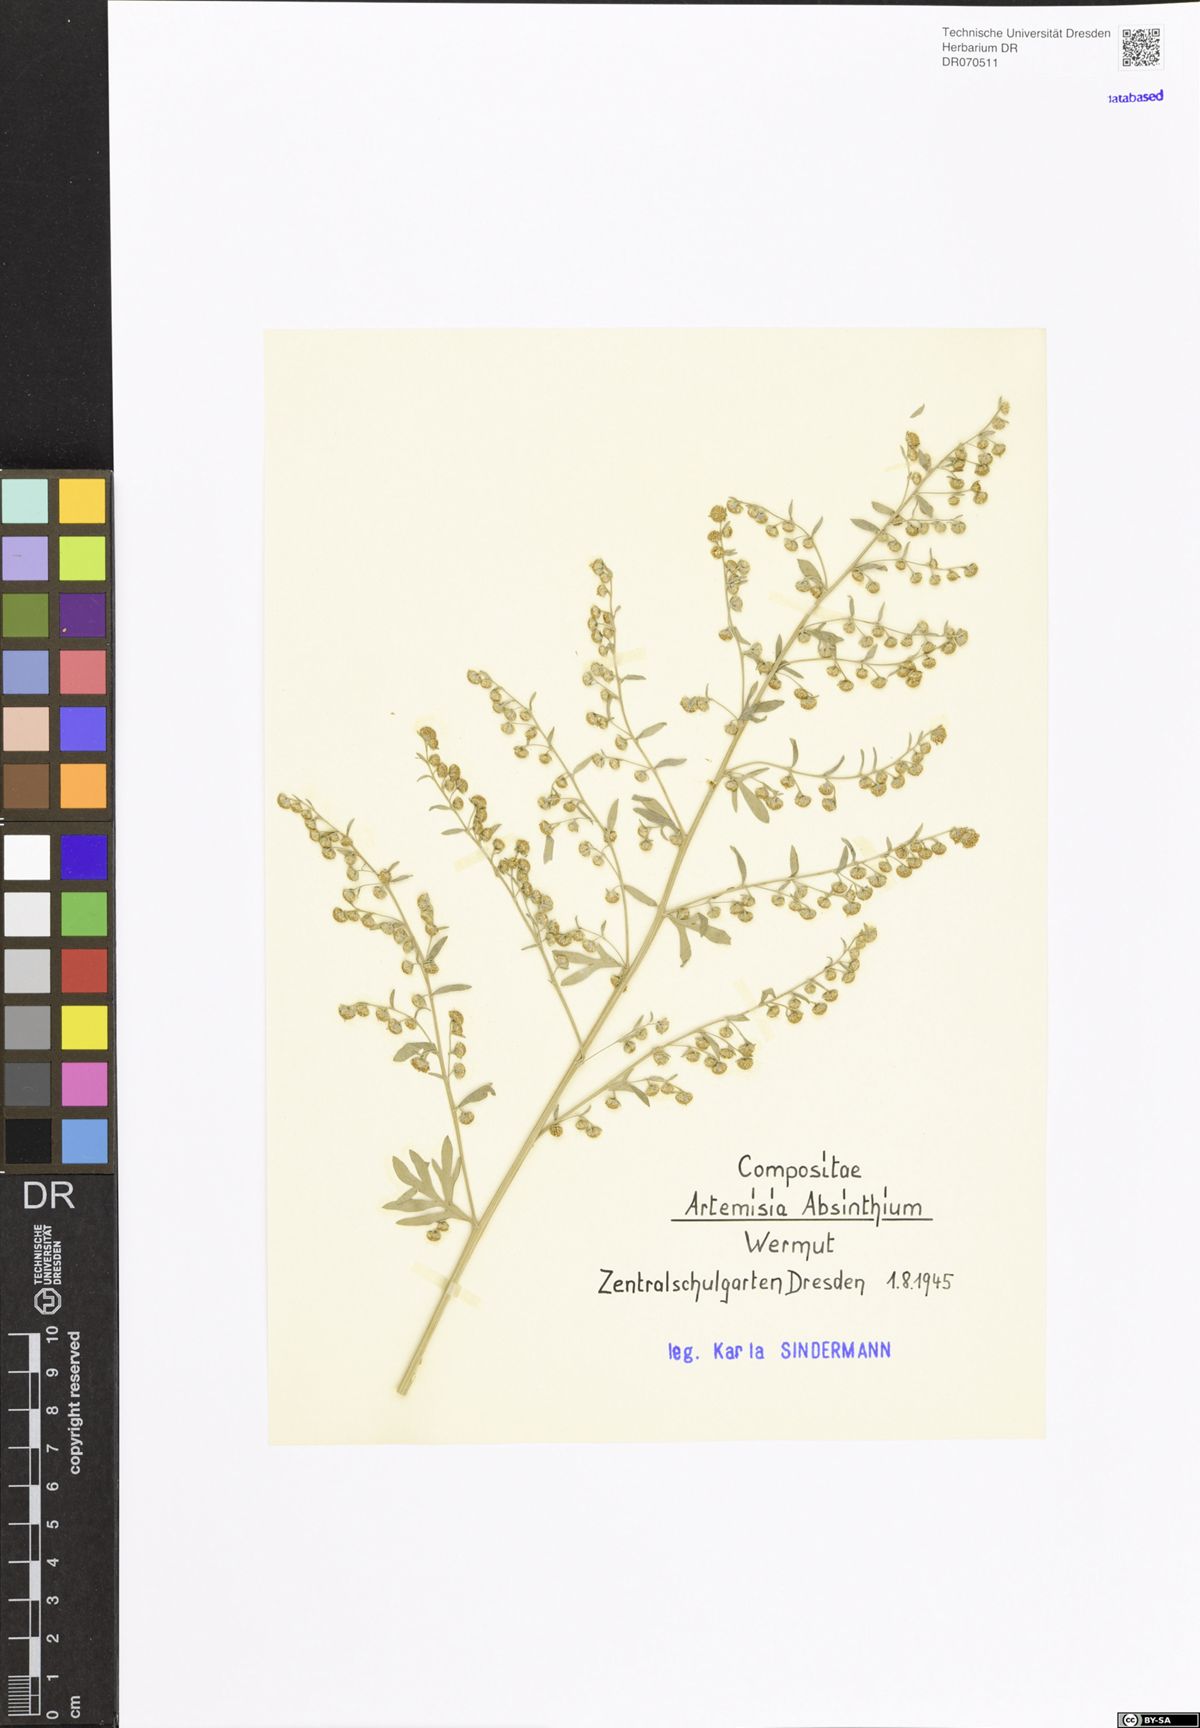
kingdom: Plantae
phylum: Tracheophyta
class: Magnoliopsida
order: Asterales
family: Asteraceae
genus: Artemisia
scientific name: Artemisia absinthium
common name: Wormwood
